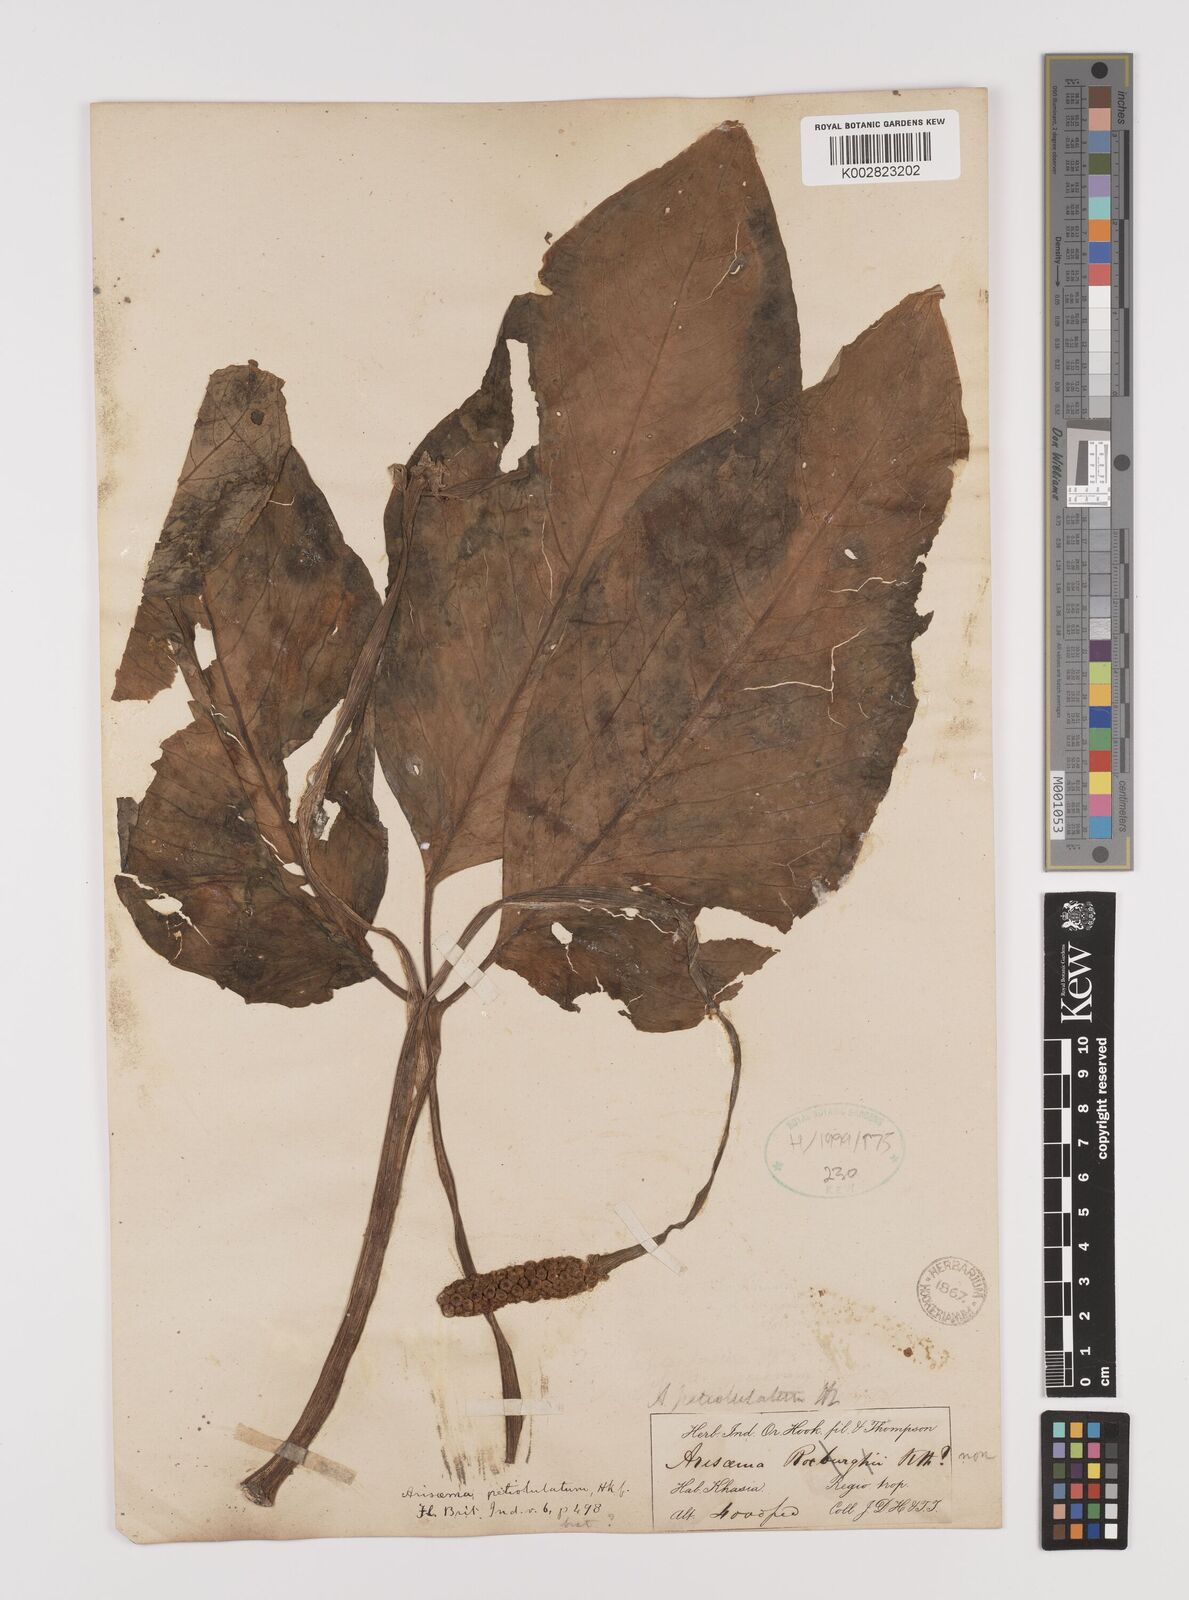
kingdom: Plantae
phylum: Tracheophyta
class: Liliopsida
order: Alismatales
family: Araceae
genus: Arisaema
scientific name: Arisaema petiolulatum
